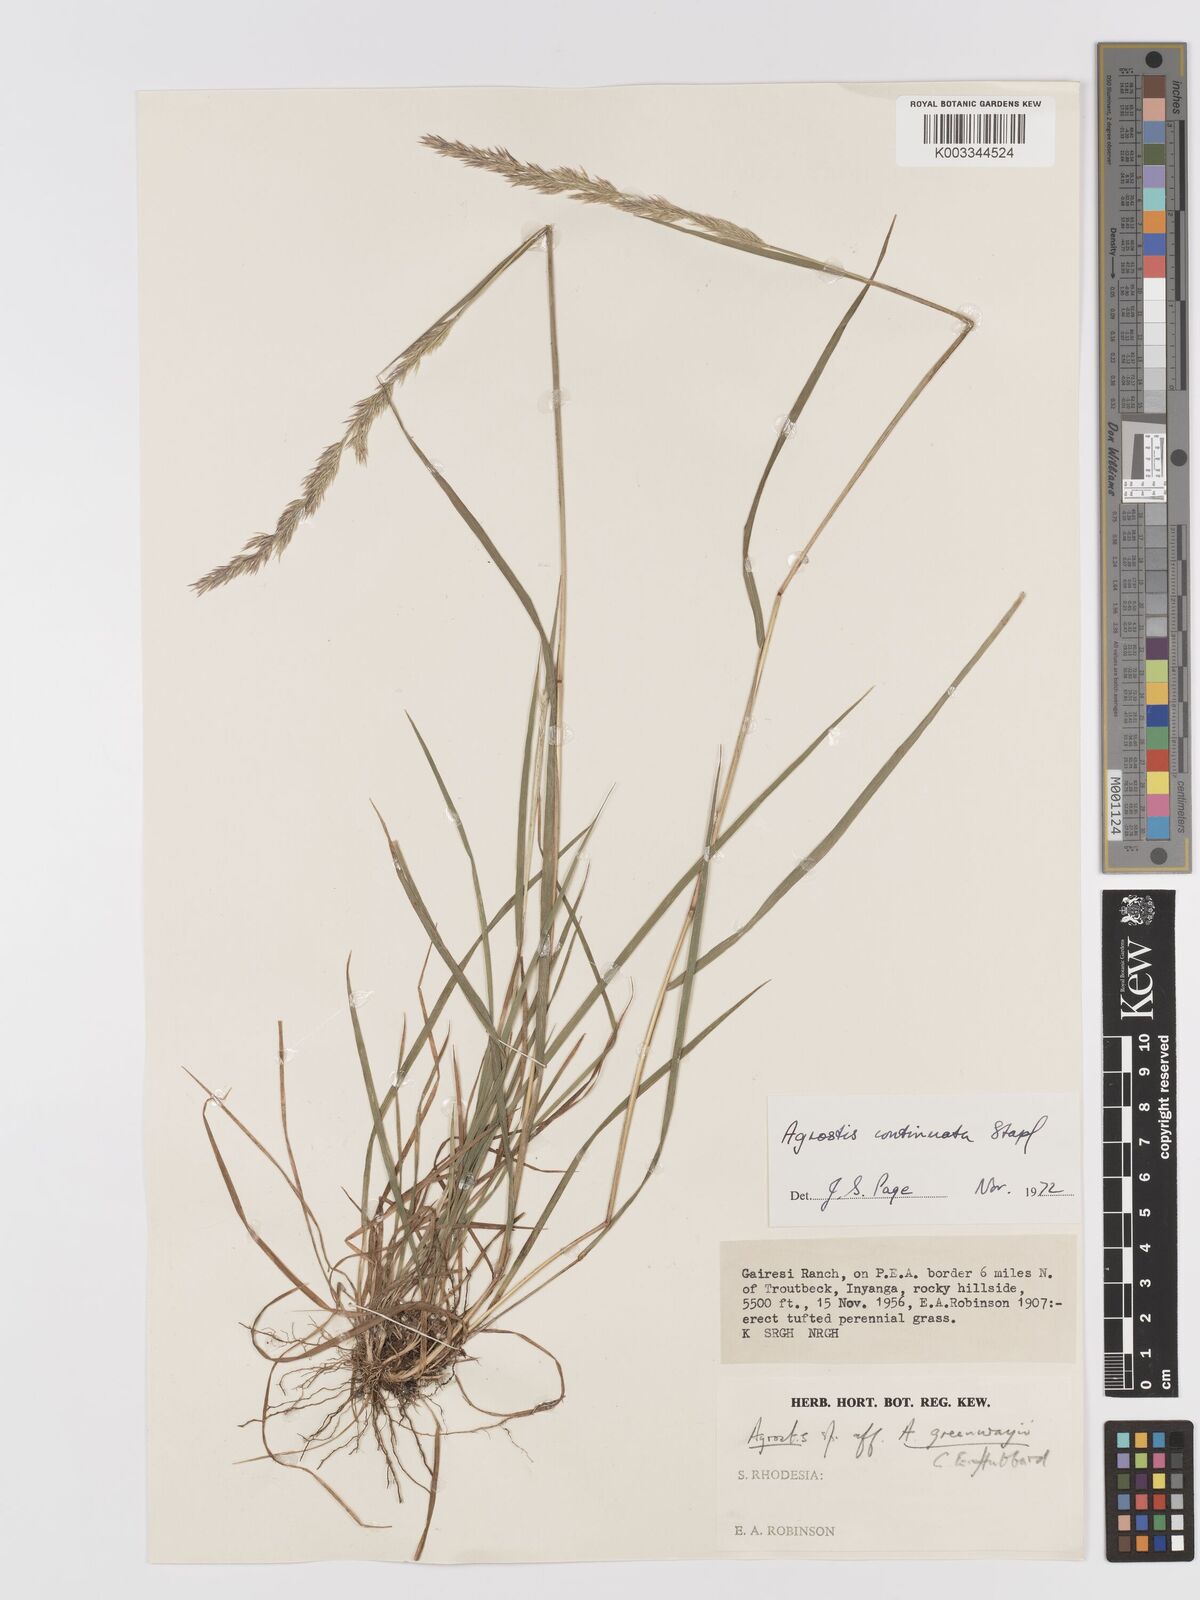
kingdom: Plantae
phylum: Tracheophyta
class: Liliopsida
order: Poales
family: Poaceae
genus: Agrostis
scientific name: Agrostis continuata
